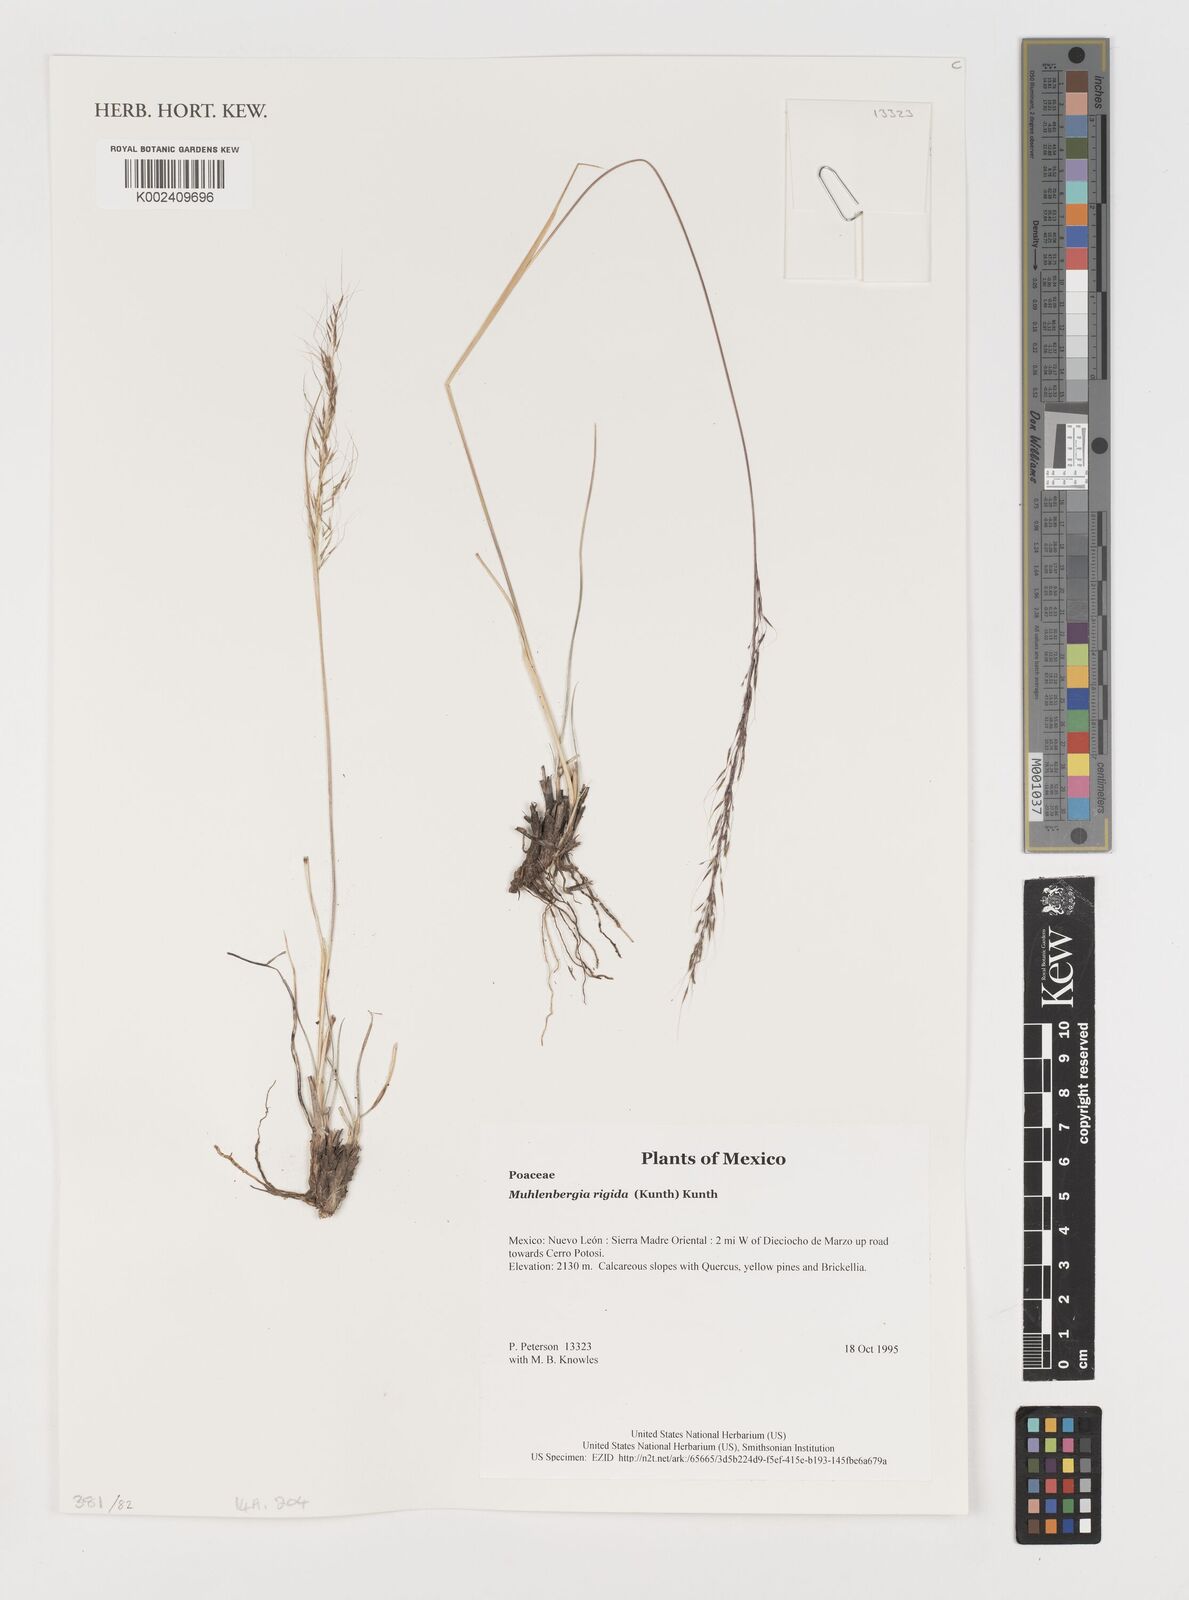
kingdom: Plantae
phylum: Tracheophyta
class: Liliopsida
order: Poales
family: Poaceae
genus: Muhlenbergia
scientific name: Muhlenbergia rigida
